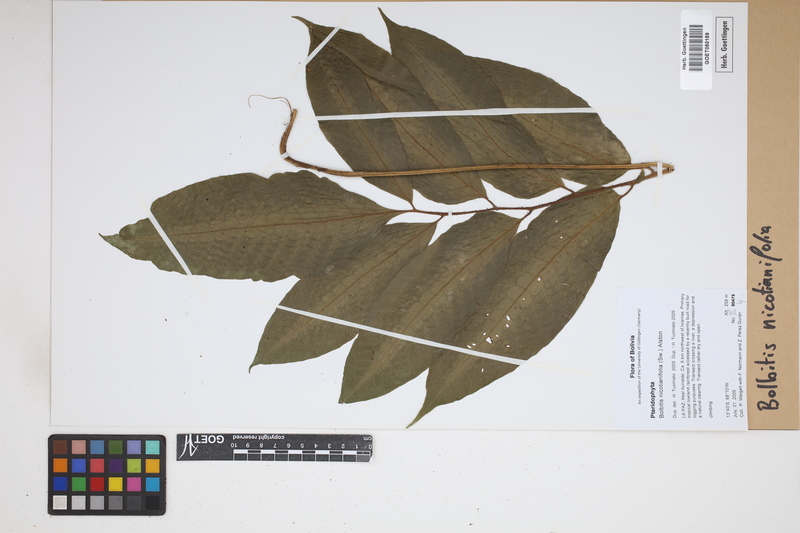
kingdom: Plantae
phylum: Tracheophyta
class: Polypodiopsida
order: Polypodiales
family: Dryopteridaceae
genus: Mickelia
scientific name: Mickelia nicotianifolia
